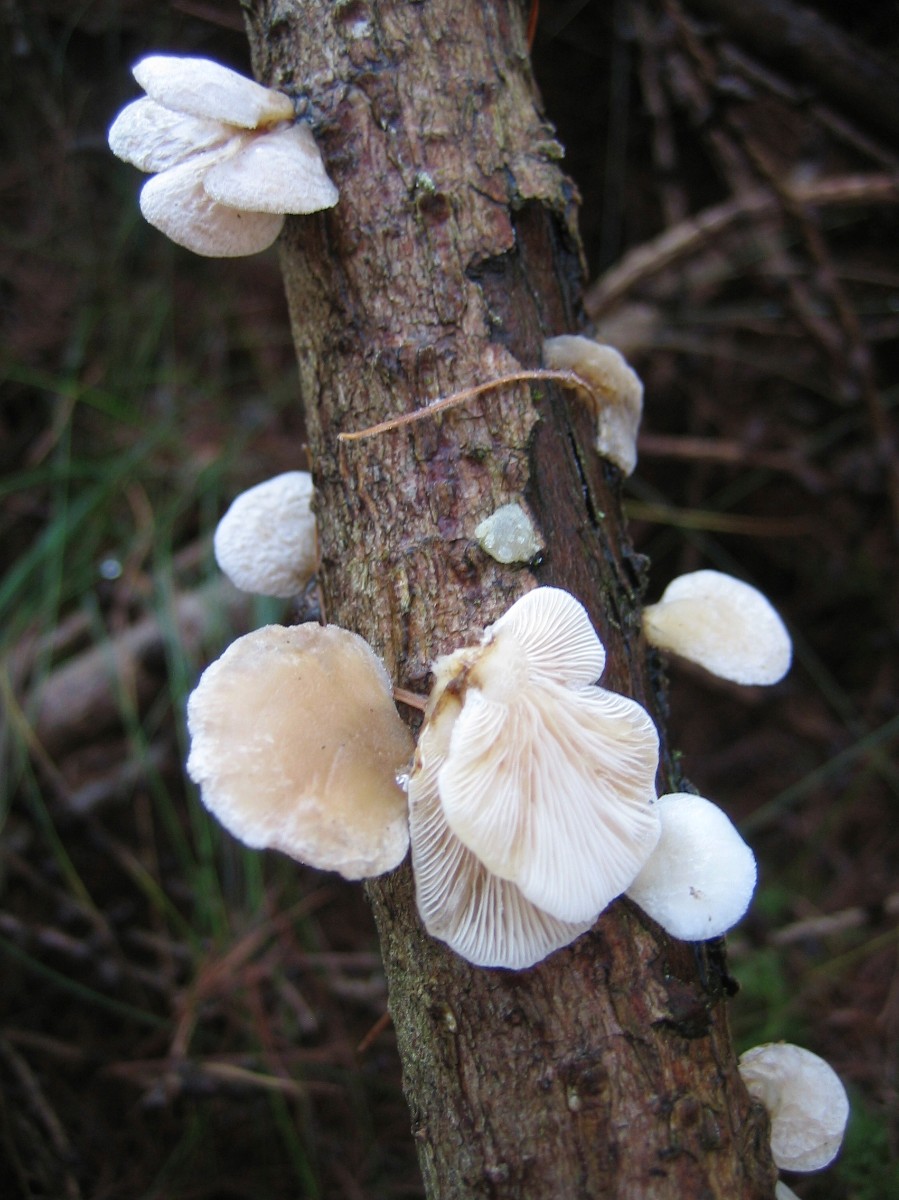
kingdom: Fungi
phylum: Basidiomycota
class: Agaricomycetes
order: Agaricales
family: Mycenaceae
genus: Panellus
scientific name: Panellus mitis
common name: mild epaulethat
